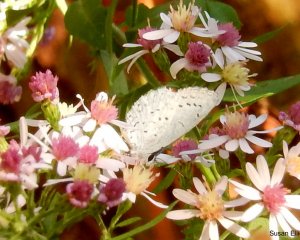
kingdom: Animalia
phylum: Arthropoda
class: Insecta
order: Lepidoptera
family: Lycaenidae
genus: Cyaniris
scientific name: Cyaniris neglecta
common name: Summer Azure
